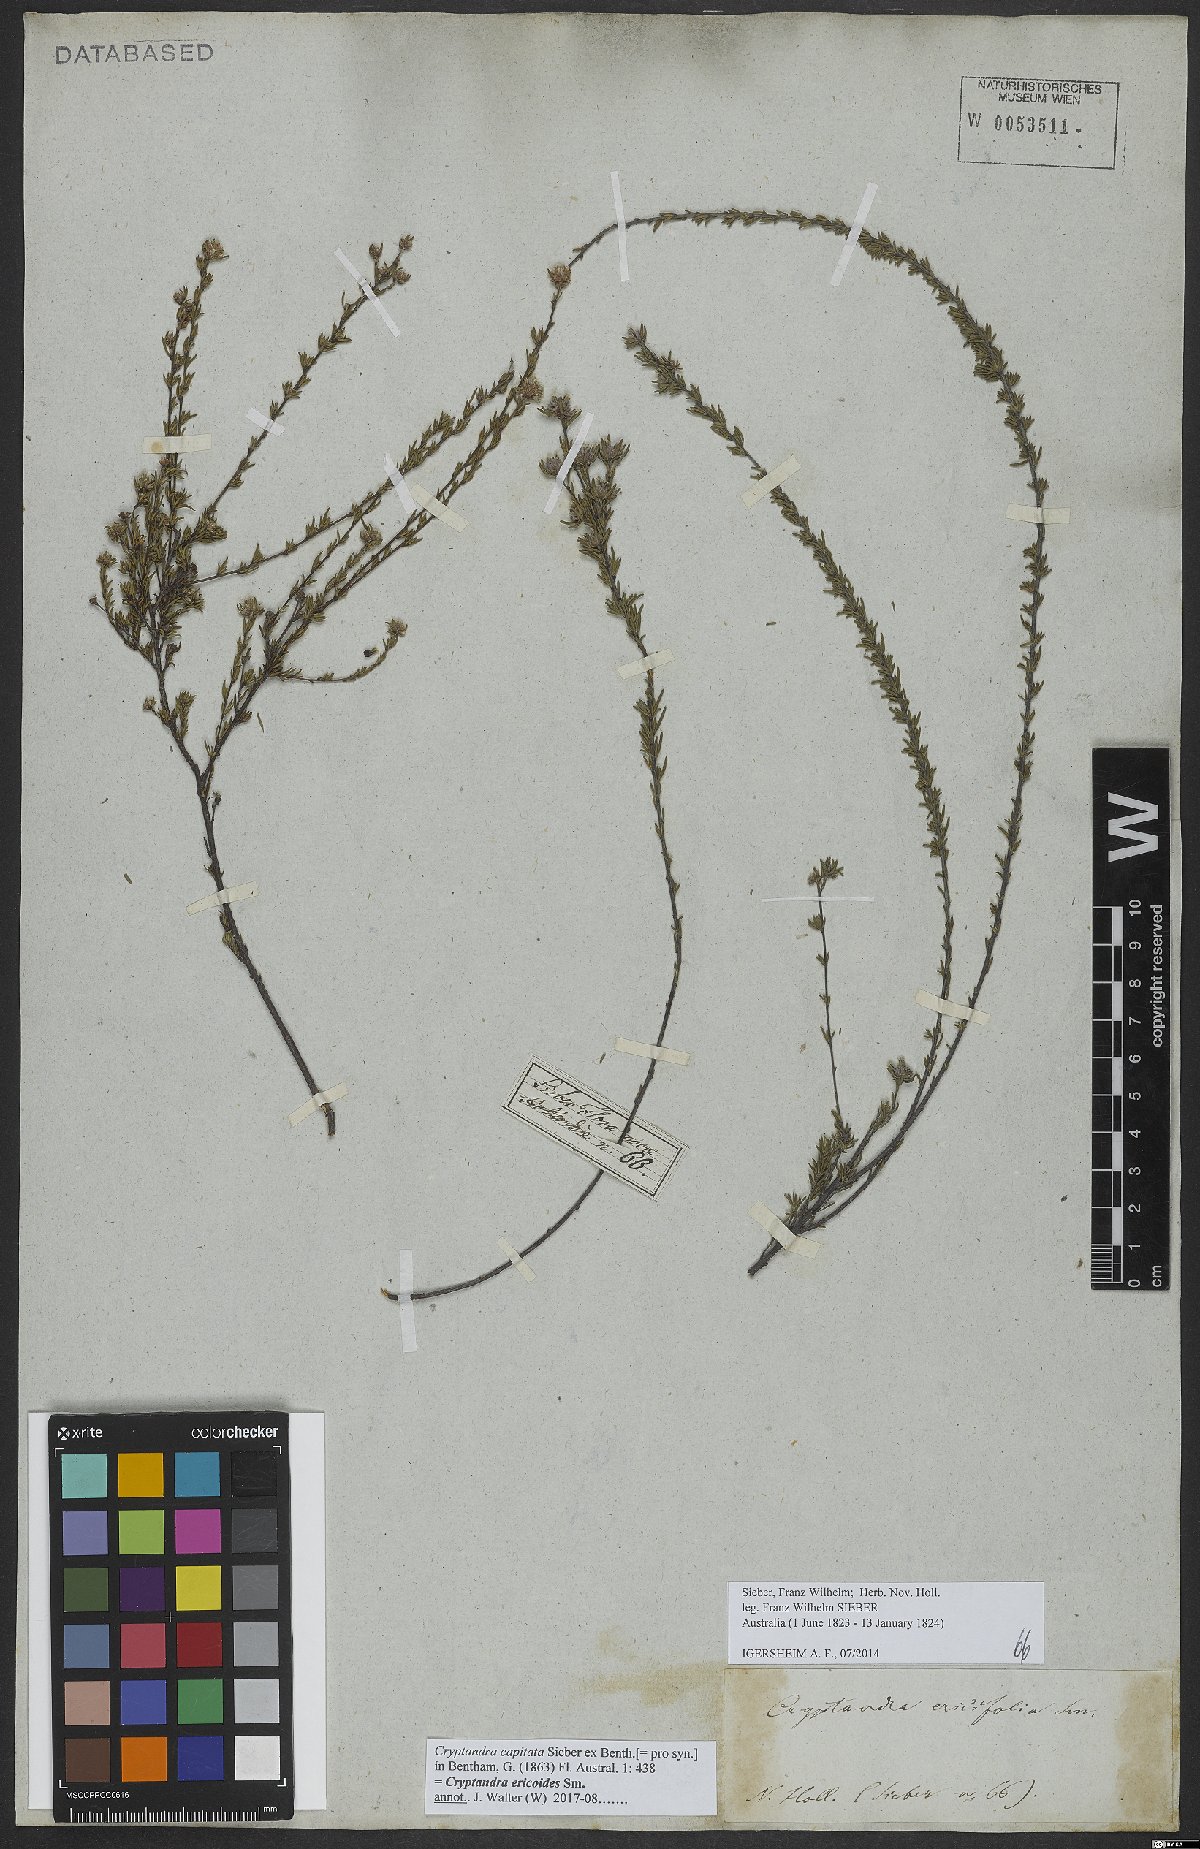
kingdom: Plantae
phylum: Tracheophyta
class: Magnoliopsida
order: Rosales
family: Rhamnaceae
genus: Cryptandra
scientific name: Cryptandra australis
